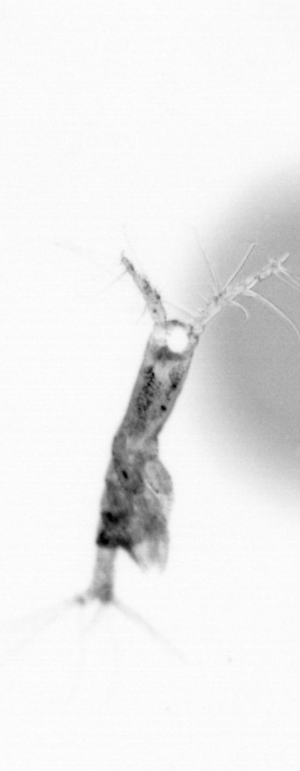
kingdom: Animalia
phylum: Arthropoda
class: Copepoda
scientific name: Copepoda
